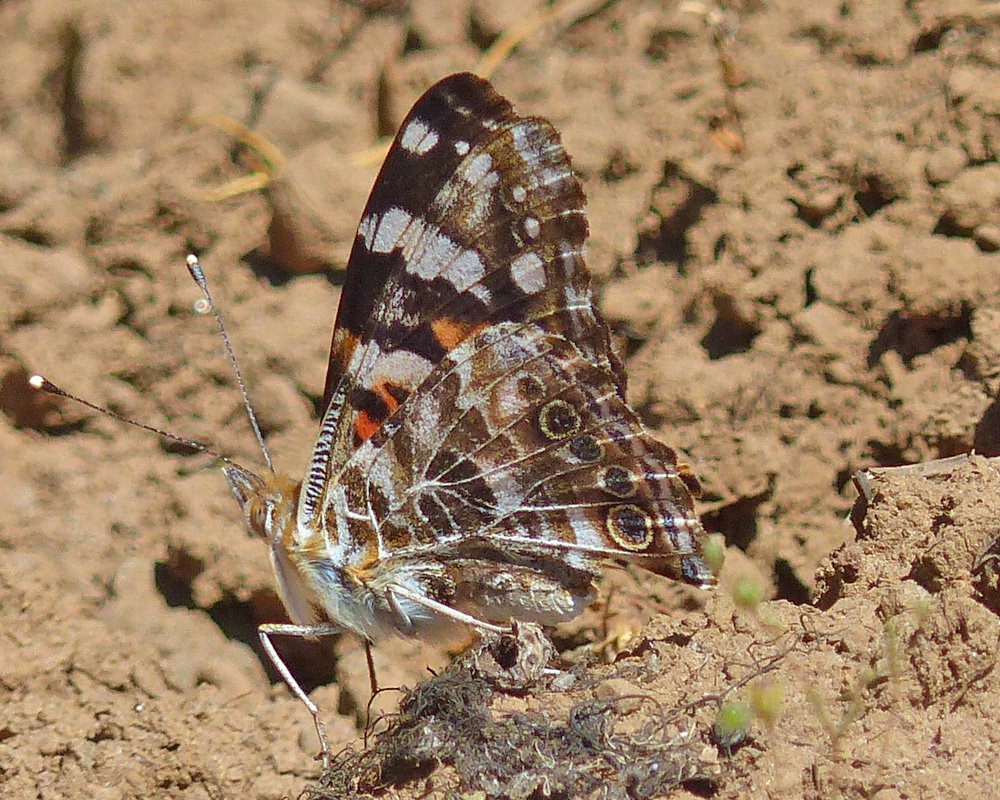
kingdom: Animalia
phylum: Arthropoda
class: Insecta
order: Lepidoptera
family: Nymphalidae
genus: Vanessa
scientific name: Vanessa cardui
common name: Painted Lady
